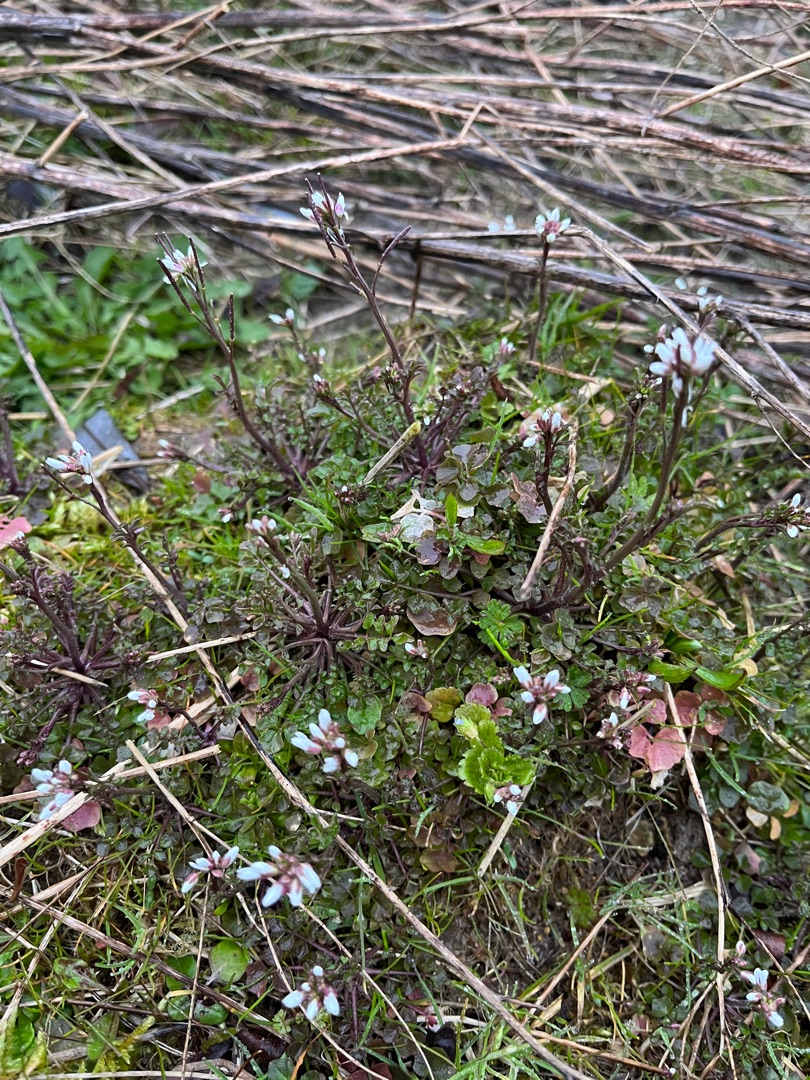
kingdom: Plantae
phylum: Tracheophyta
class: Magnoliopsida
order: Brassicales
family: Brassicaceae
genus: Cardamine
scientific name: Cardamine hirsuta
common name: Roset-springklap
